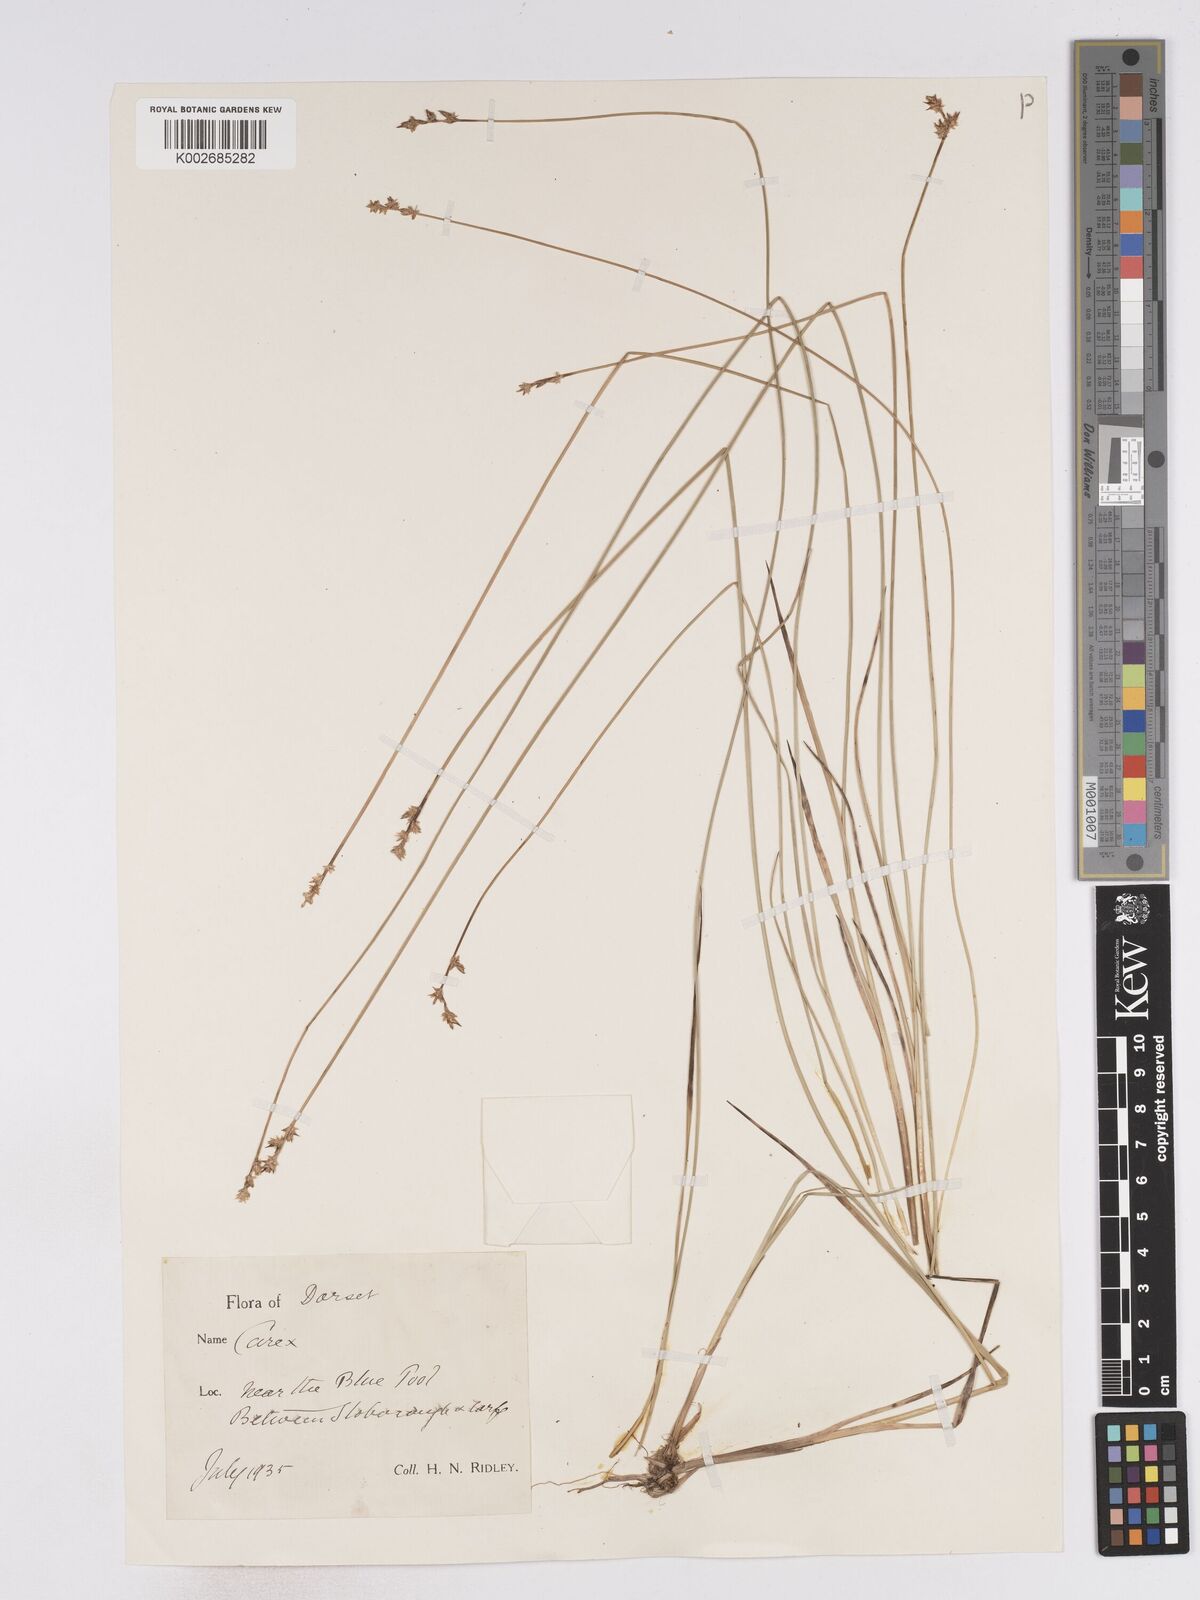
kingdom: Plantae
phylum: Tracheophyta
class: Liliopsida
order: Poales
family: Cyperaceae
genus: Carex
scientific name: Carex echinata
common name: Star sedge
